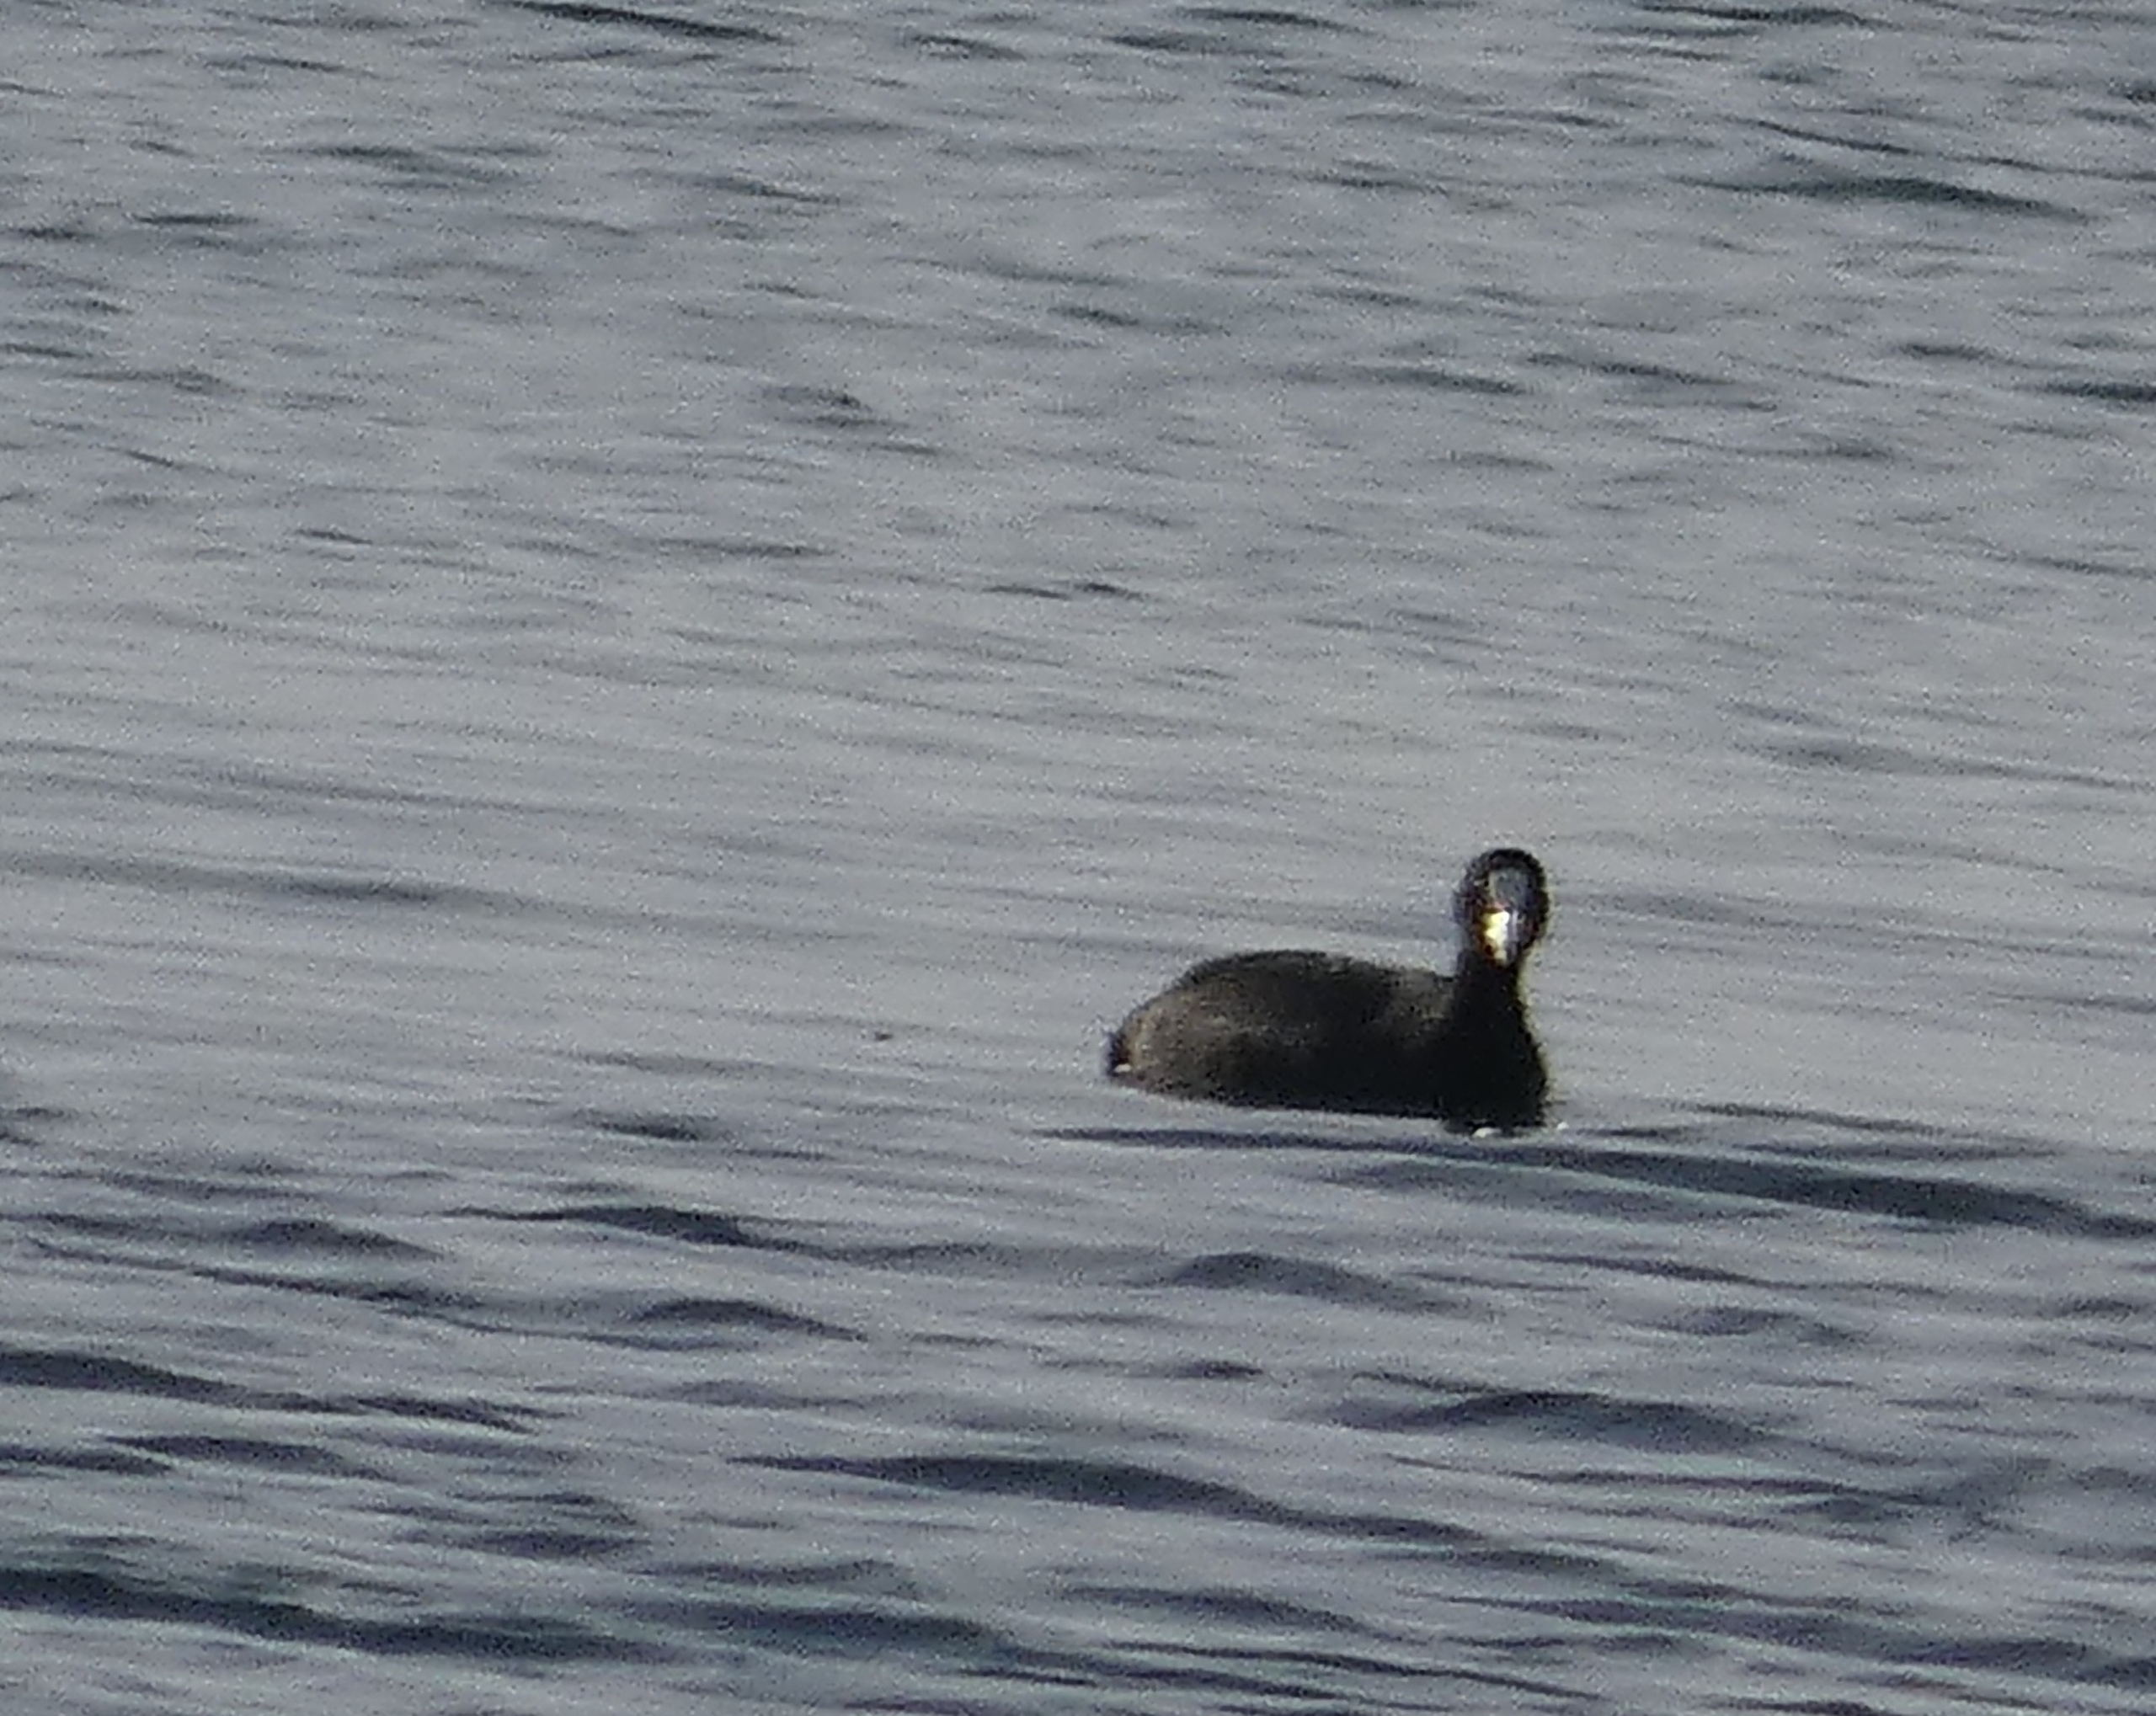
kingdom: Animalia
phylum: Chordata
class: Aves
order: Gruiformes
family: Rallidae
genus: Fulica
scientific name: Fulica atra
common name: Blishøne
